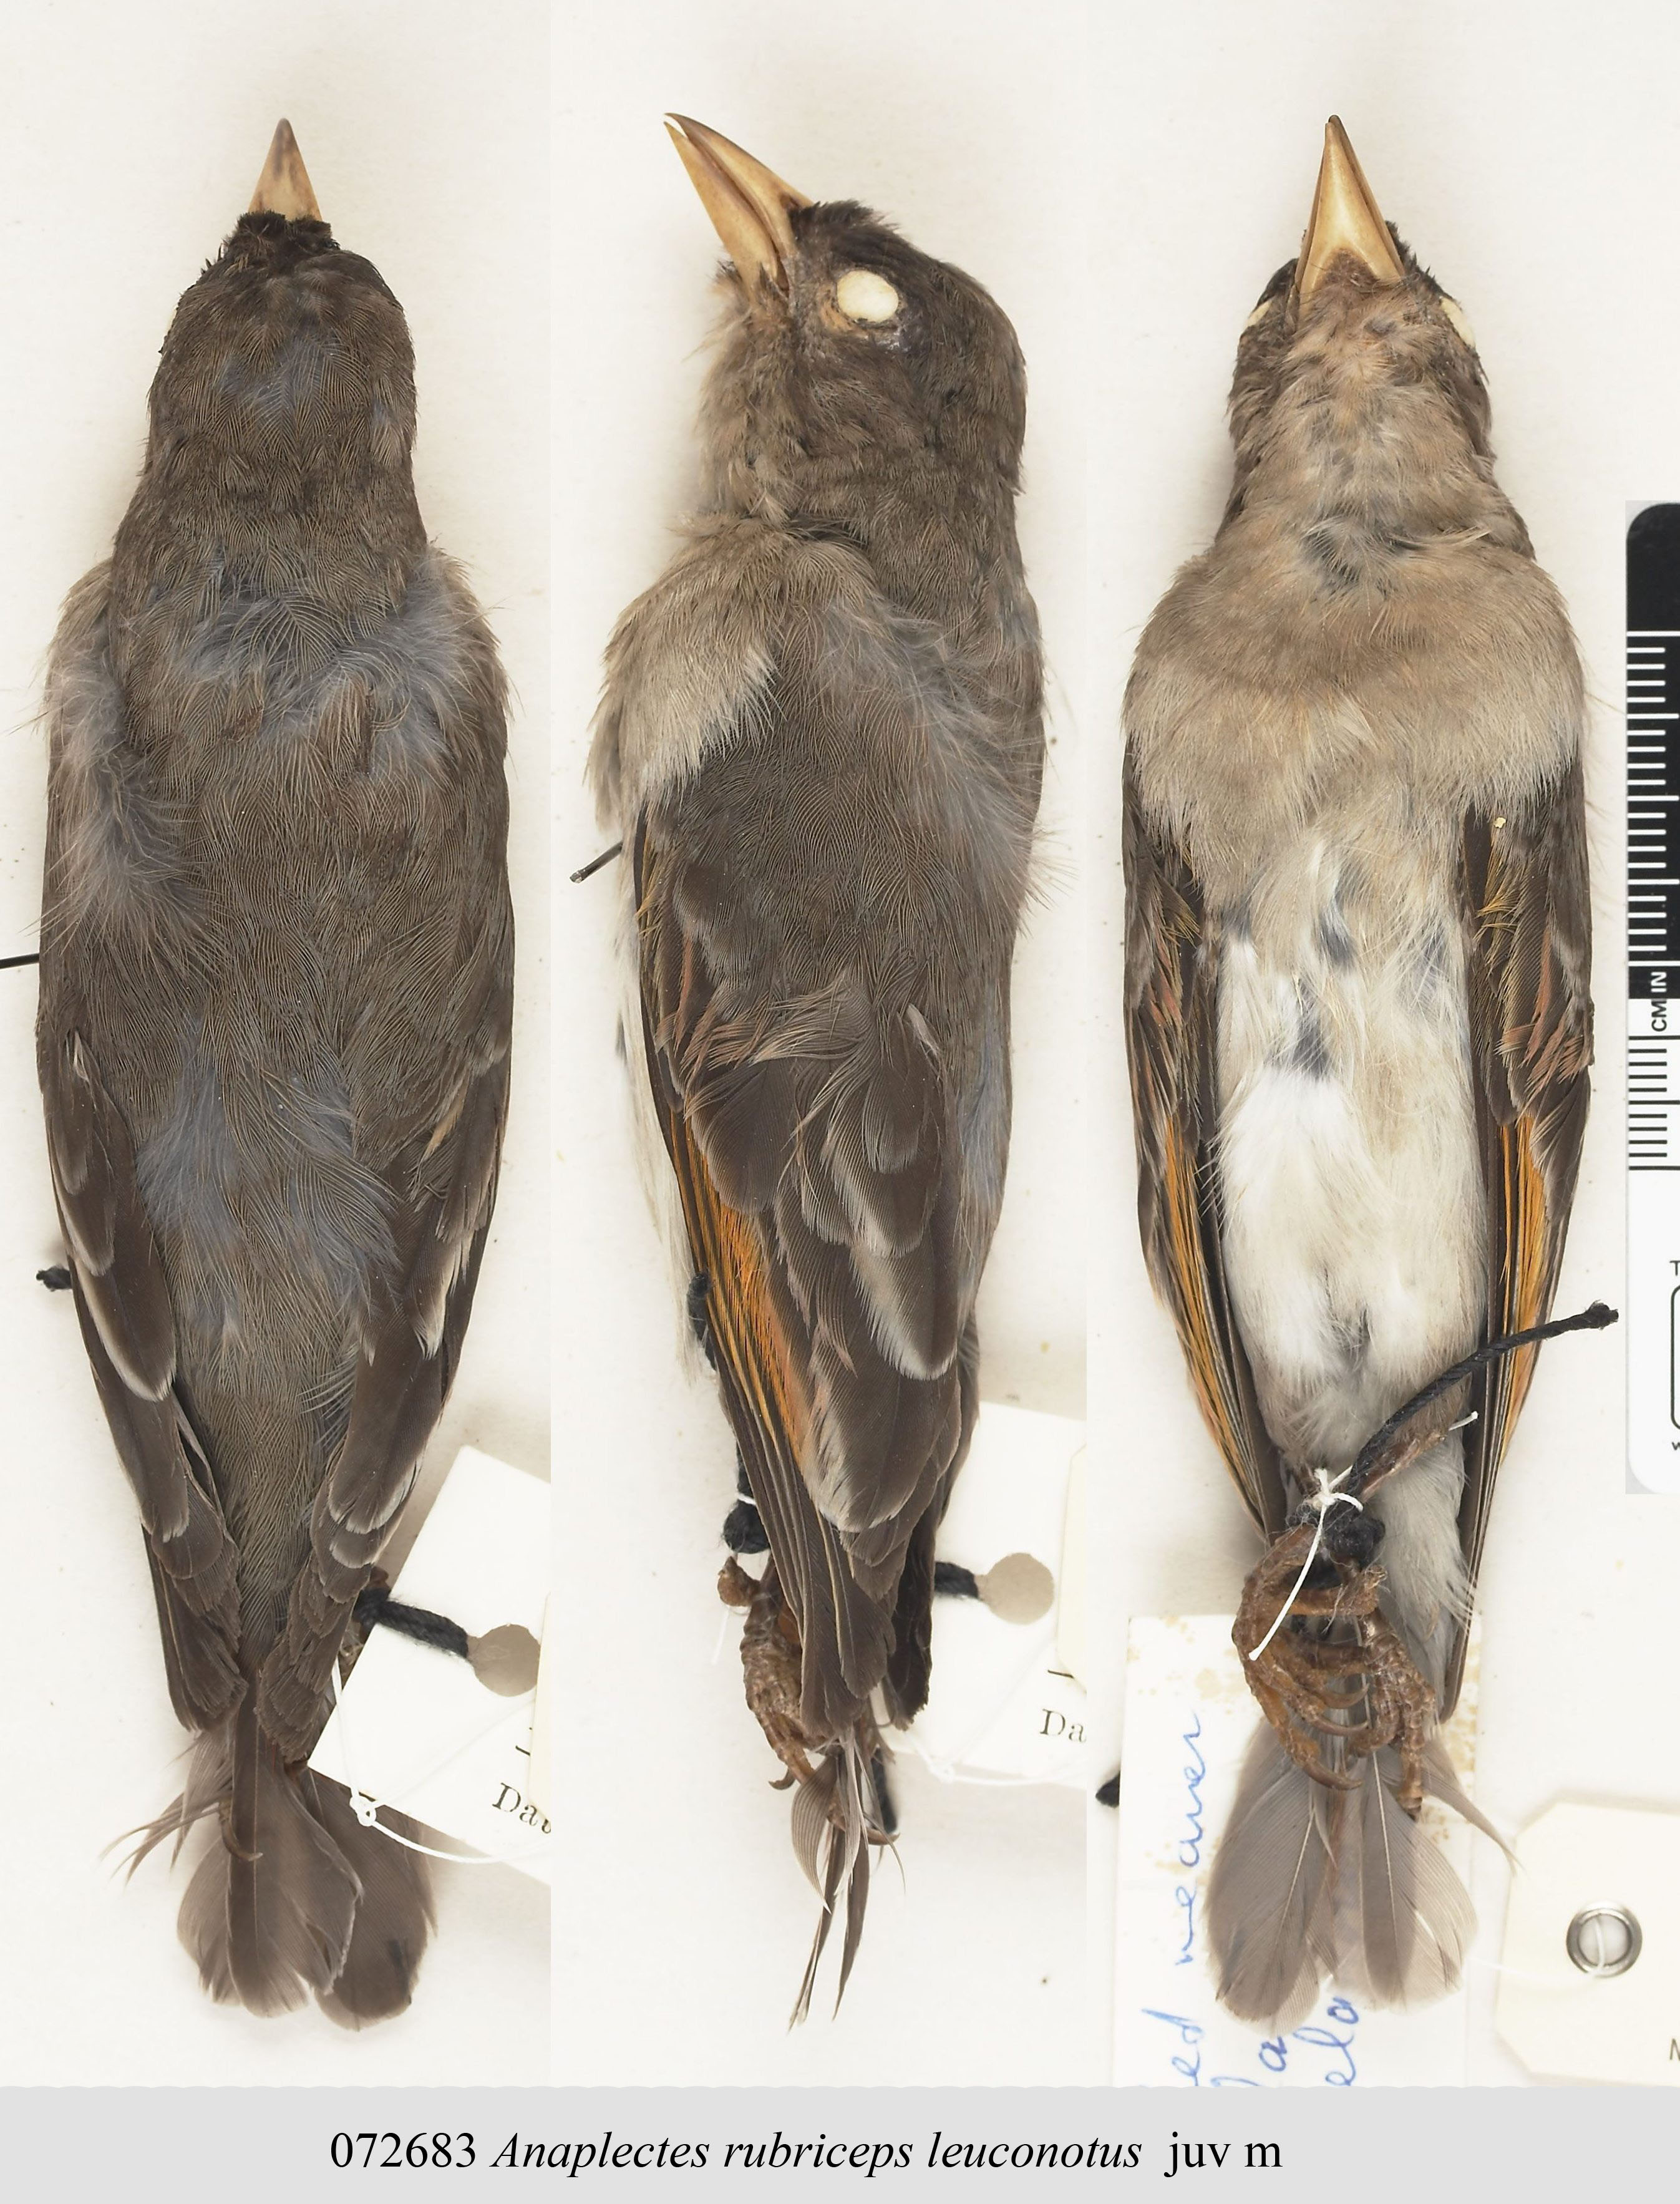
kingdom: Animalia
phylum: Chordata
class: Aves
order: Passeriformes
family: Ploceidae
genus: Anaplectes
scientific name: Anaplectes rubriceps
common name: Red-headed weaver
